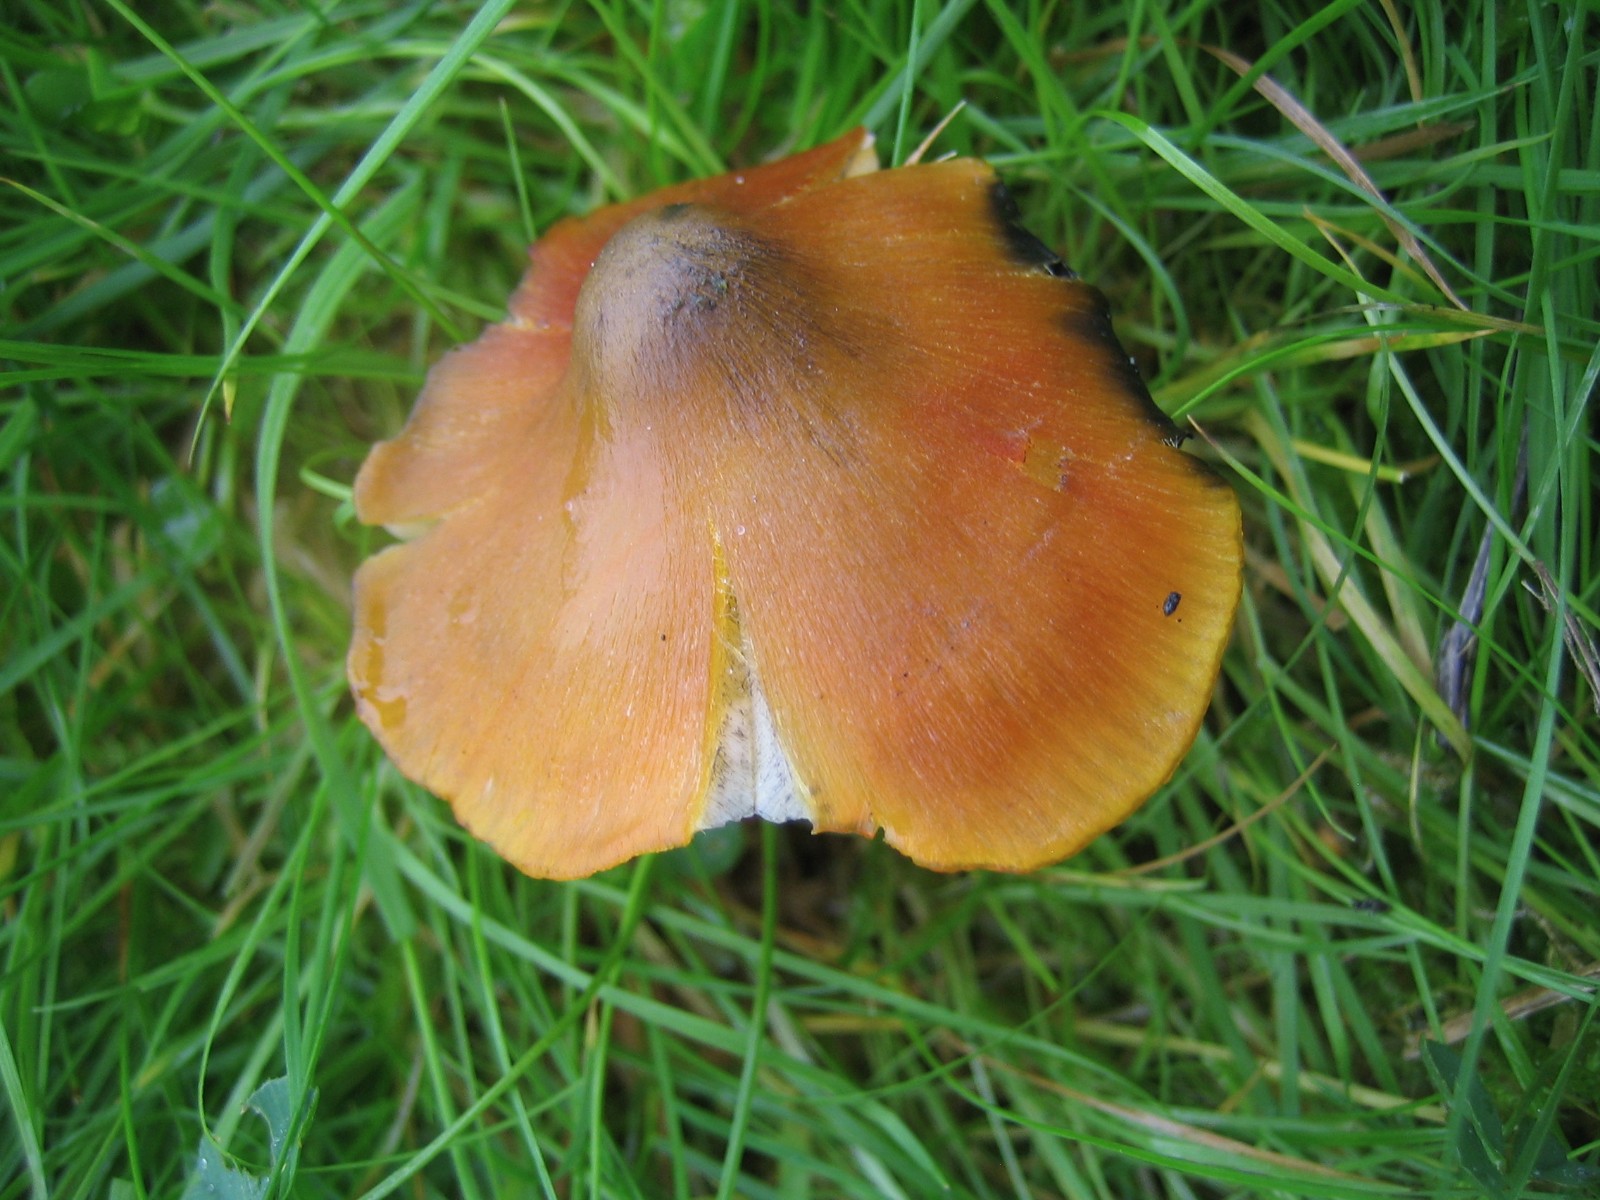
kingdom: Fungi
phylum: Basidiomycota
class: Agaricomycetes
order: Agaricales
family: Hygrophoraceae
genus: Hygrocybe
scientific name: Hygrocybe conica
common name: kegle-vokshat
